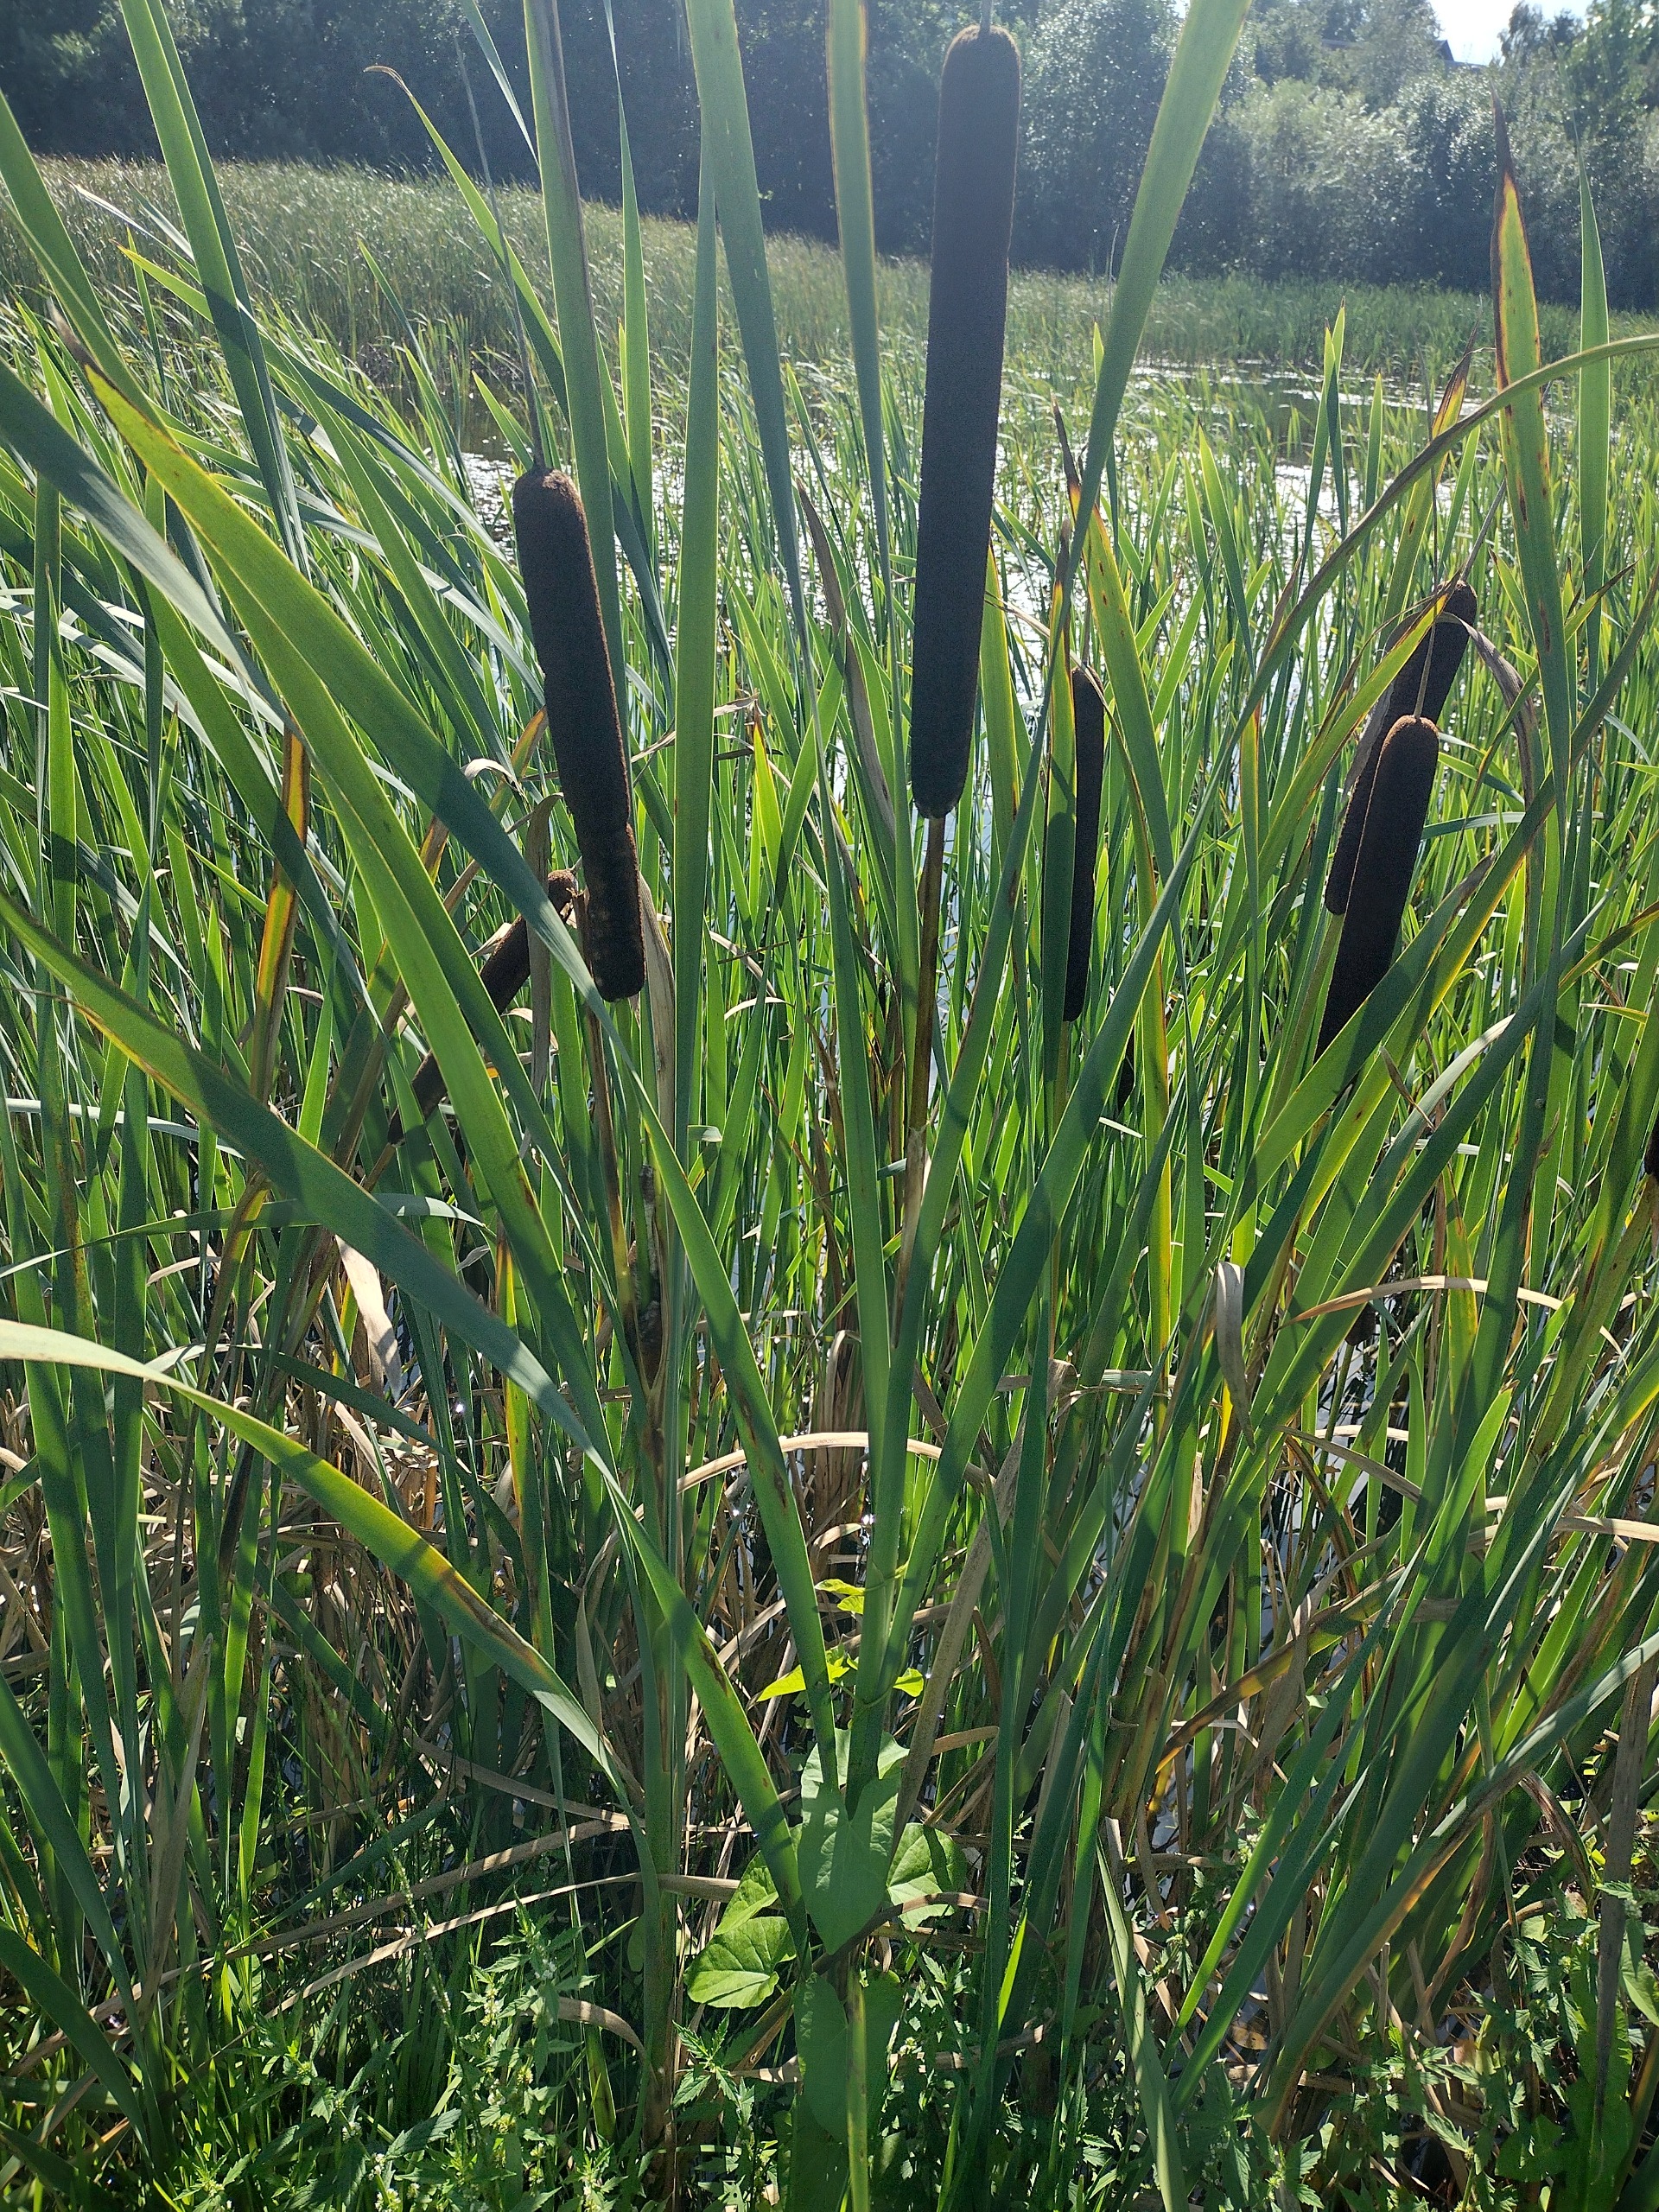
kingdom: Plantae
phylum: Tracheophyta
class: Liliopsida
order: Poales
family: Typhaceae
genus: Typha
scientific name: Typha latifolia
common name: Bredbladet dunhammer
